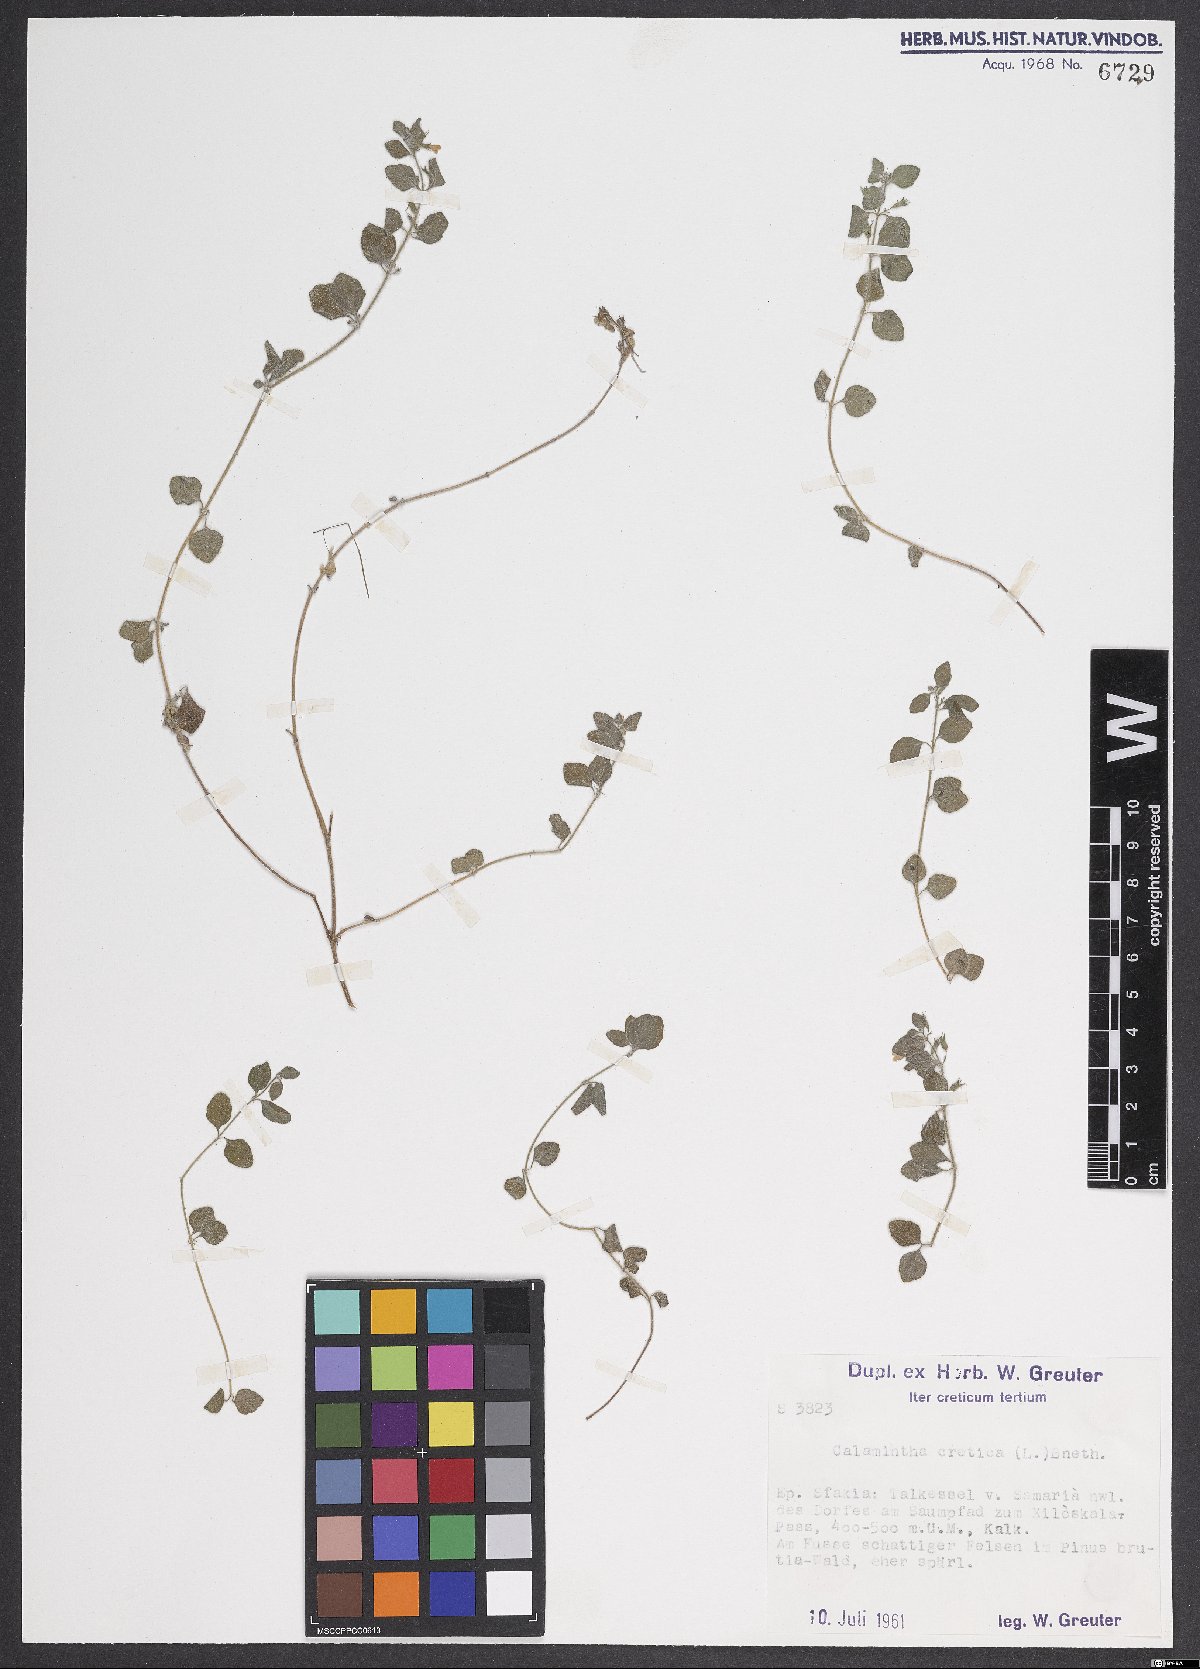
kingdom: Plantae
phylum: Tracheophyta
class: Magnoliopsida
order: Lamiales
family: Lamiaceae
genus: Clinopodium
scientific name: Clinopodium creticum
